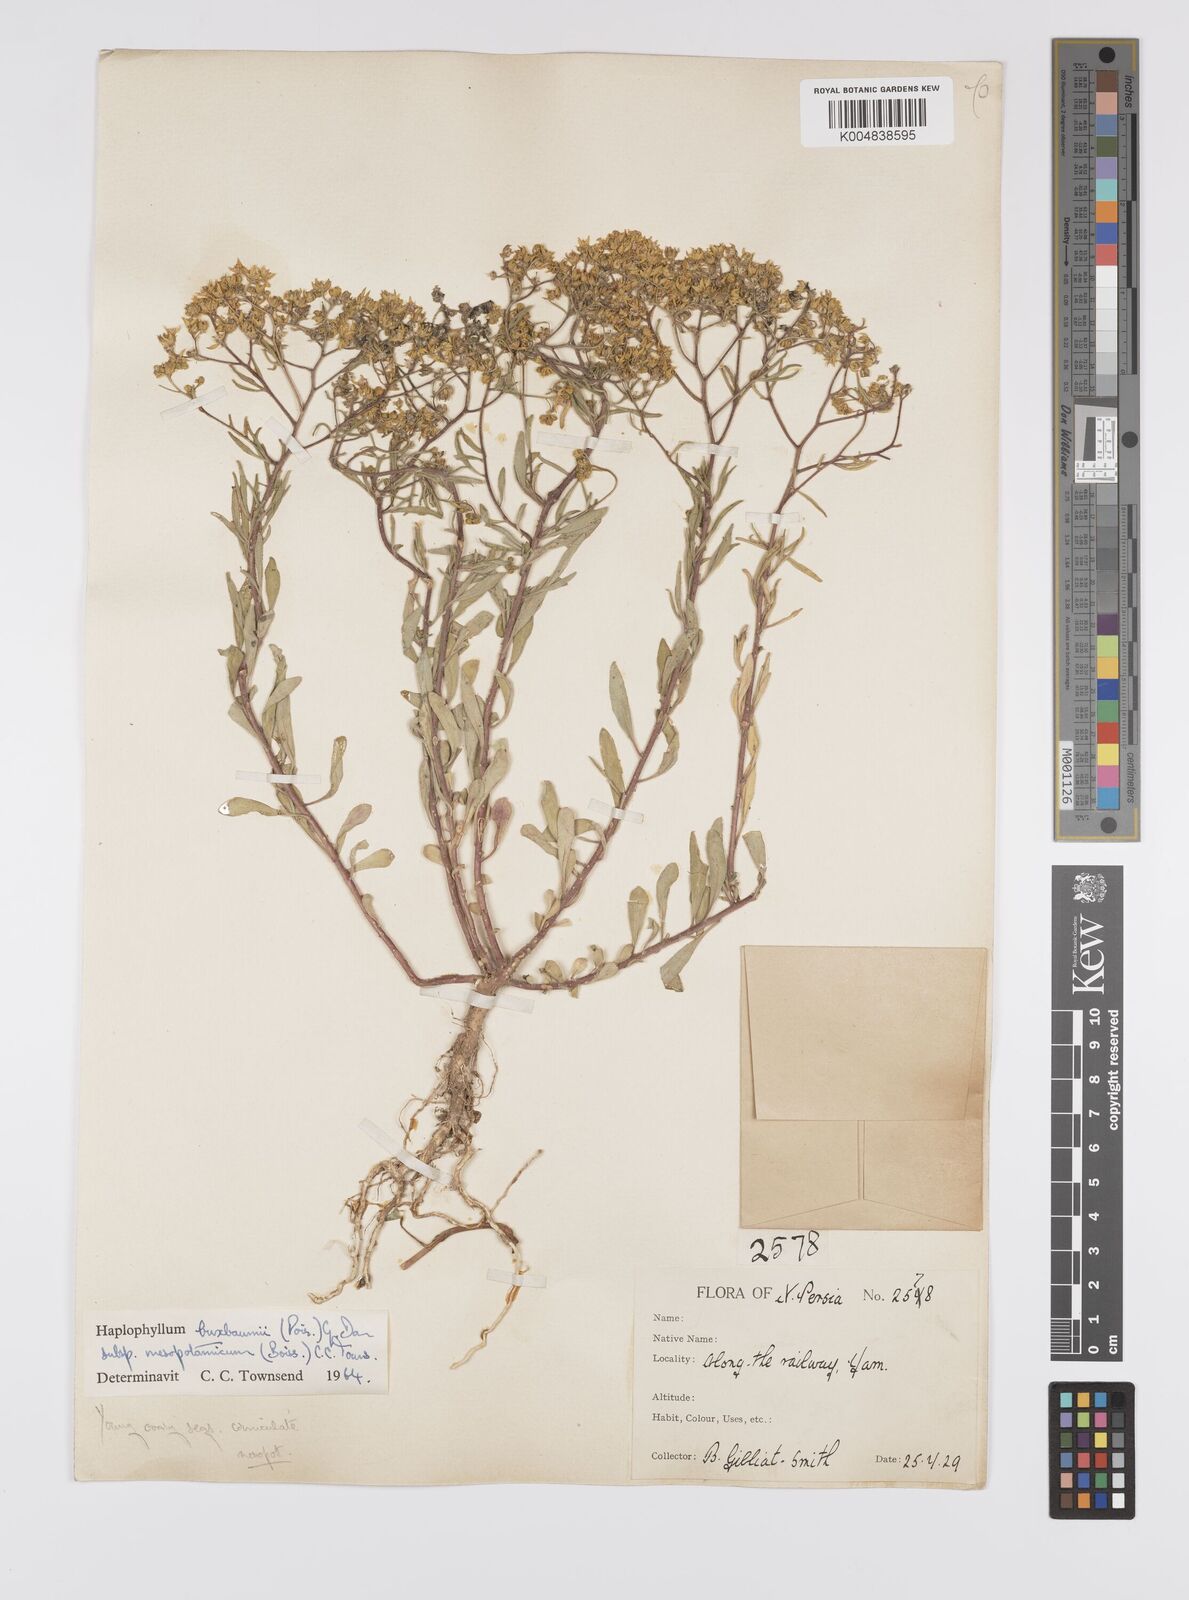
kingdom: Plantae
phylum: Tracheophyta
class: Magnoliopsida
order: Sapindales
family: Rutaceae
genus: Haplophyllum
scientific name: Haplophyllum buxbaumii
